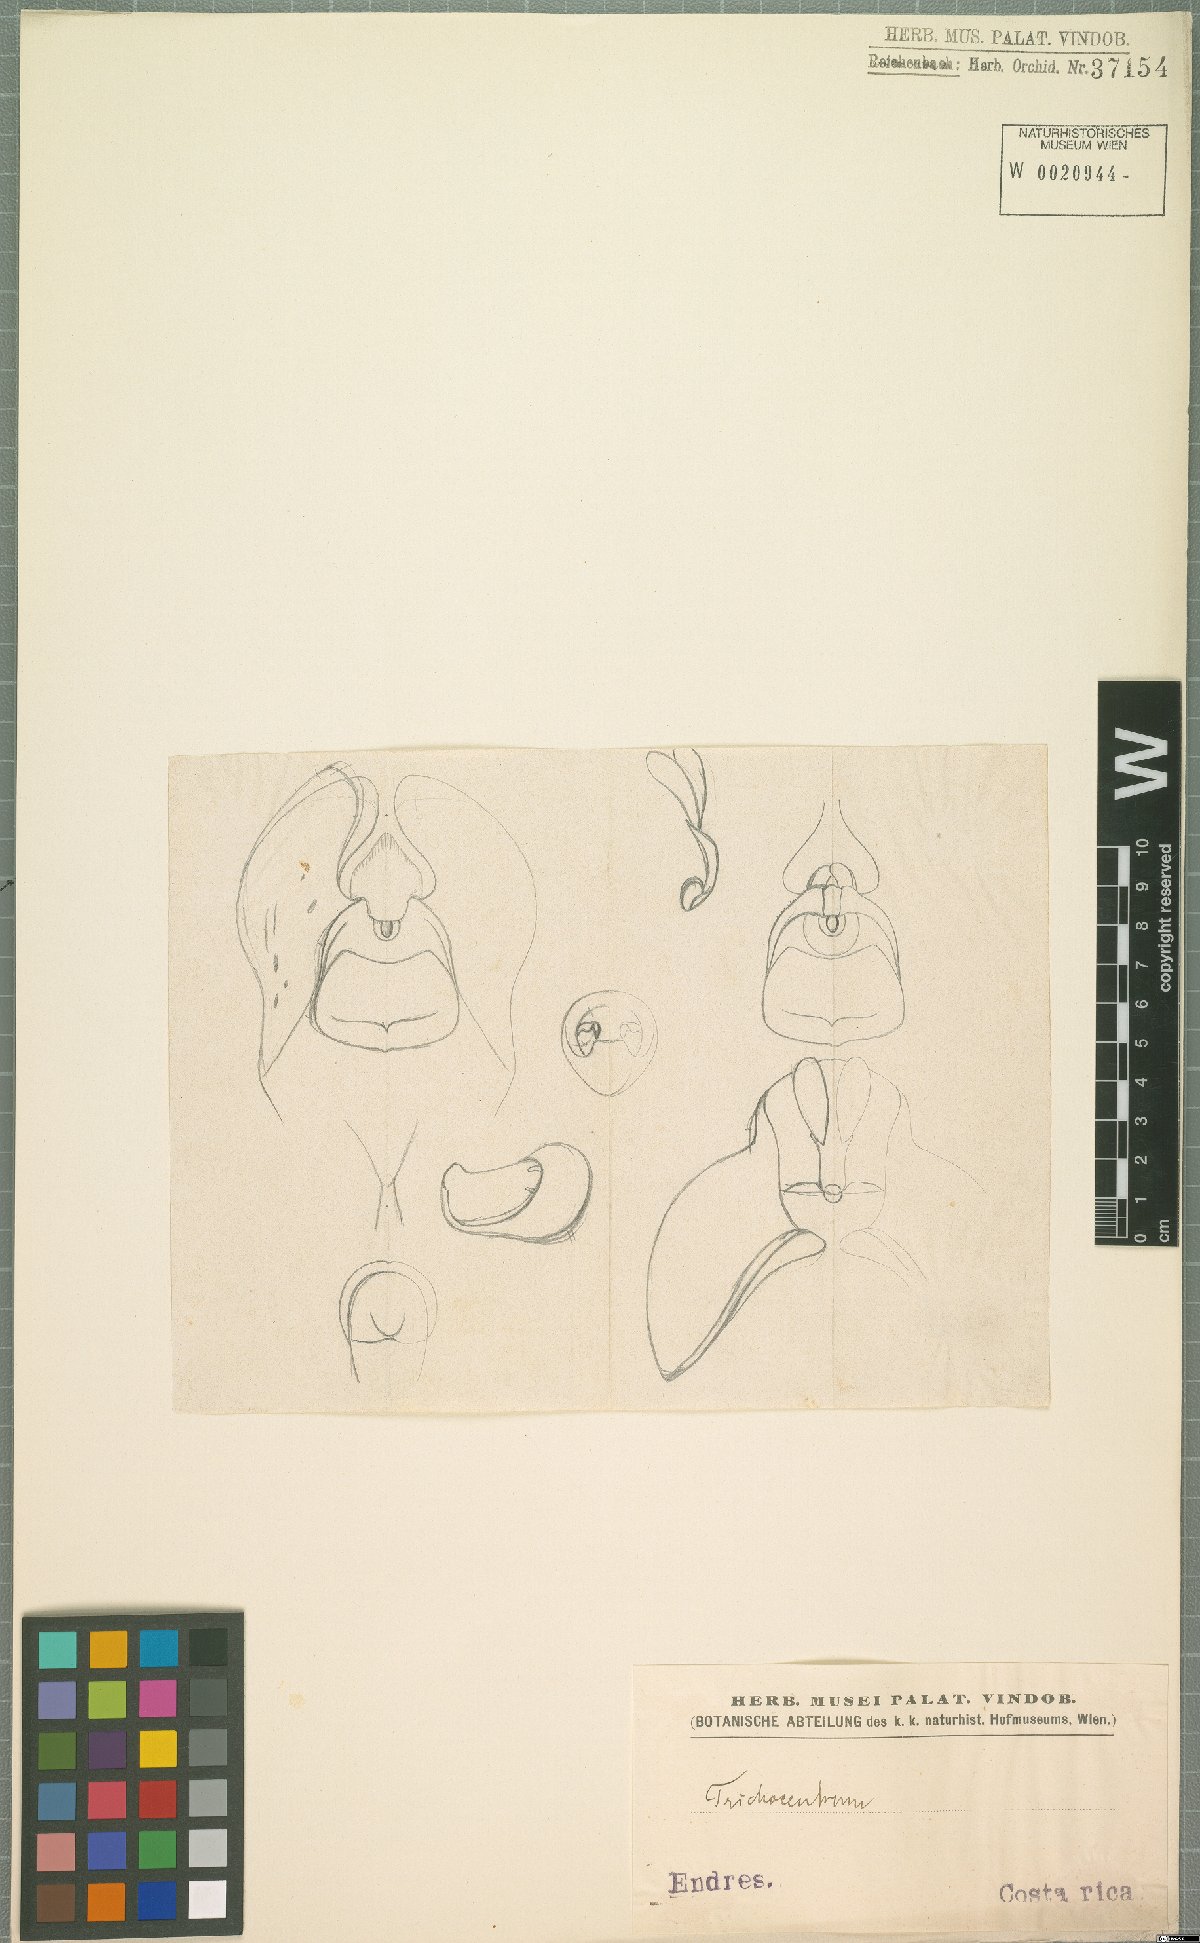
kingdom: Plantae
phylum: Tracheophyta
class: Liliopsida
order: Asparagales
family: Orchidaceae
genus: Trichocentrum
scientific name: Trichocentrum
